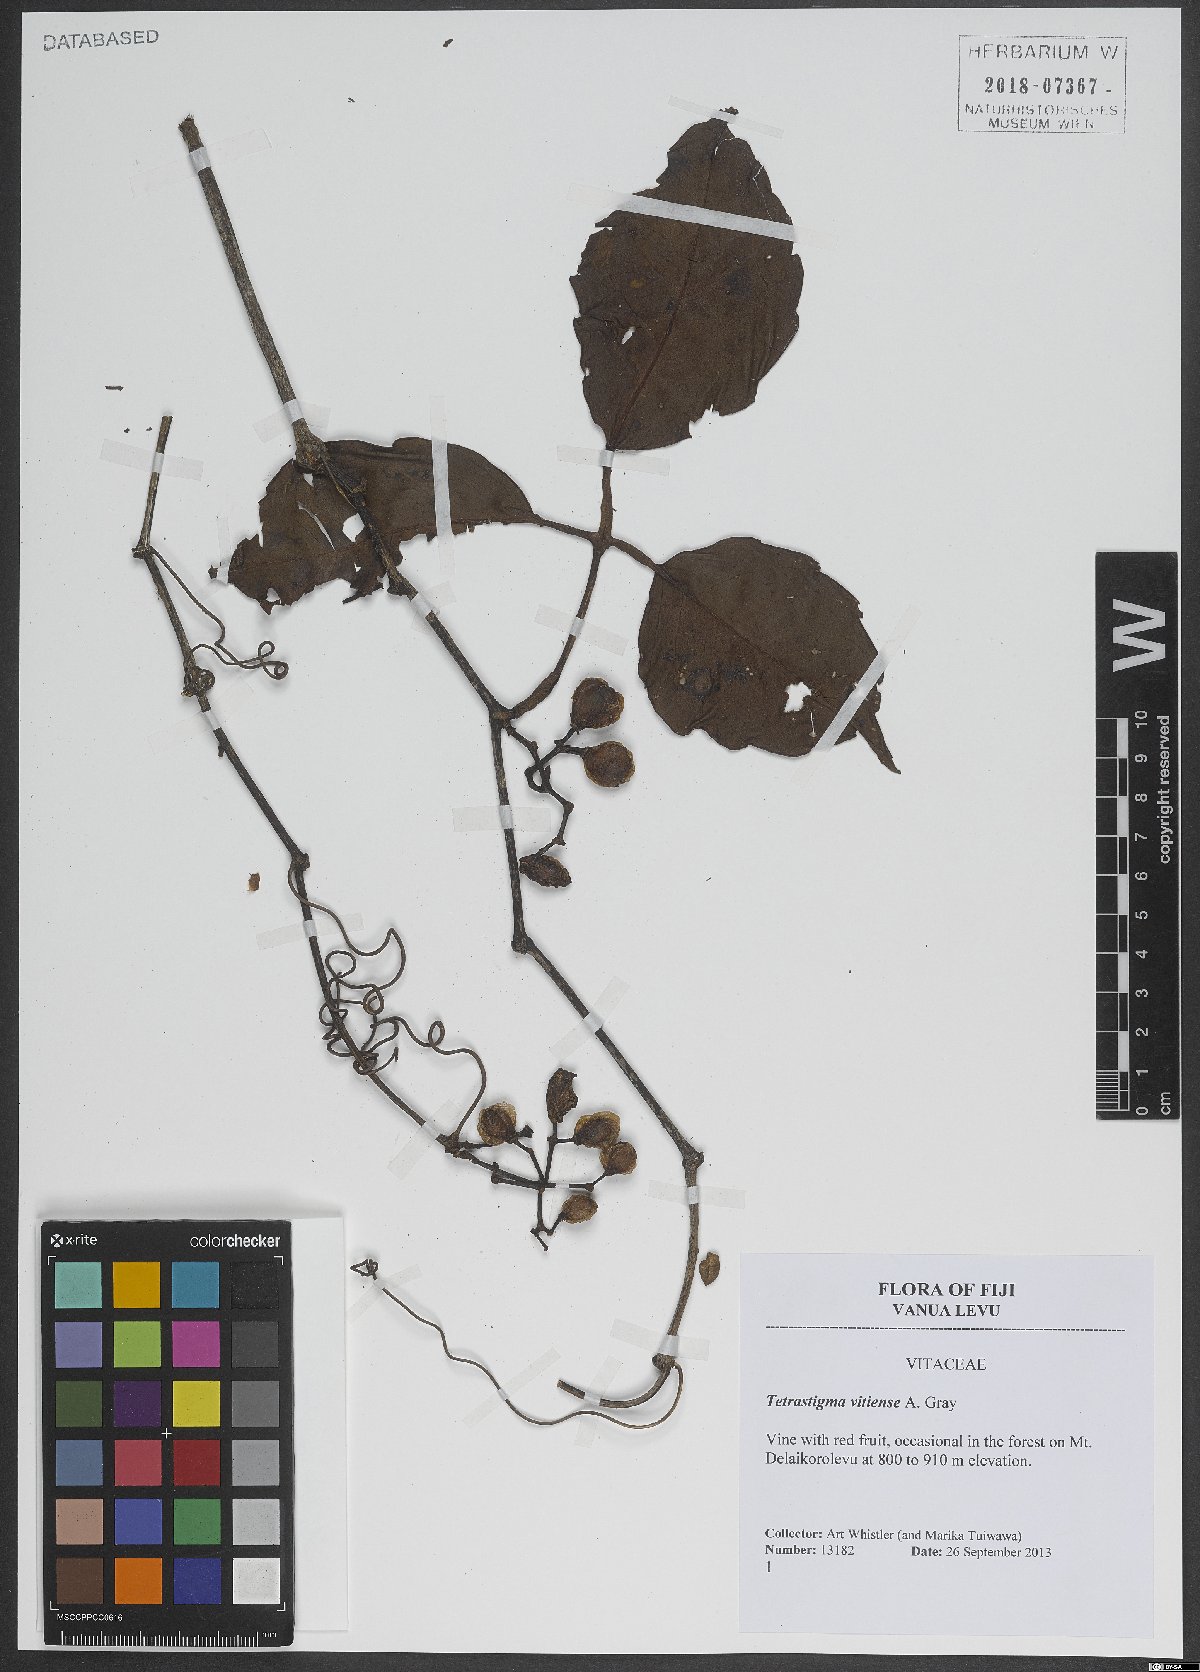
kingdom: Plantae
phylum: Tracheophyta
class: Magnoliopsida
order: Vitales
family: Vitaceae
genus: Cayratia
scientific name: Cayratia vitiensis
